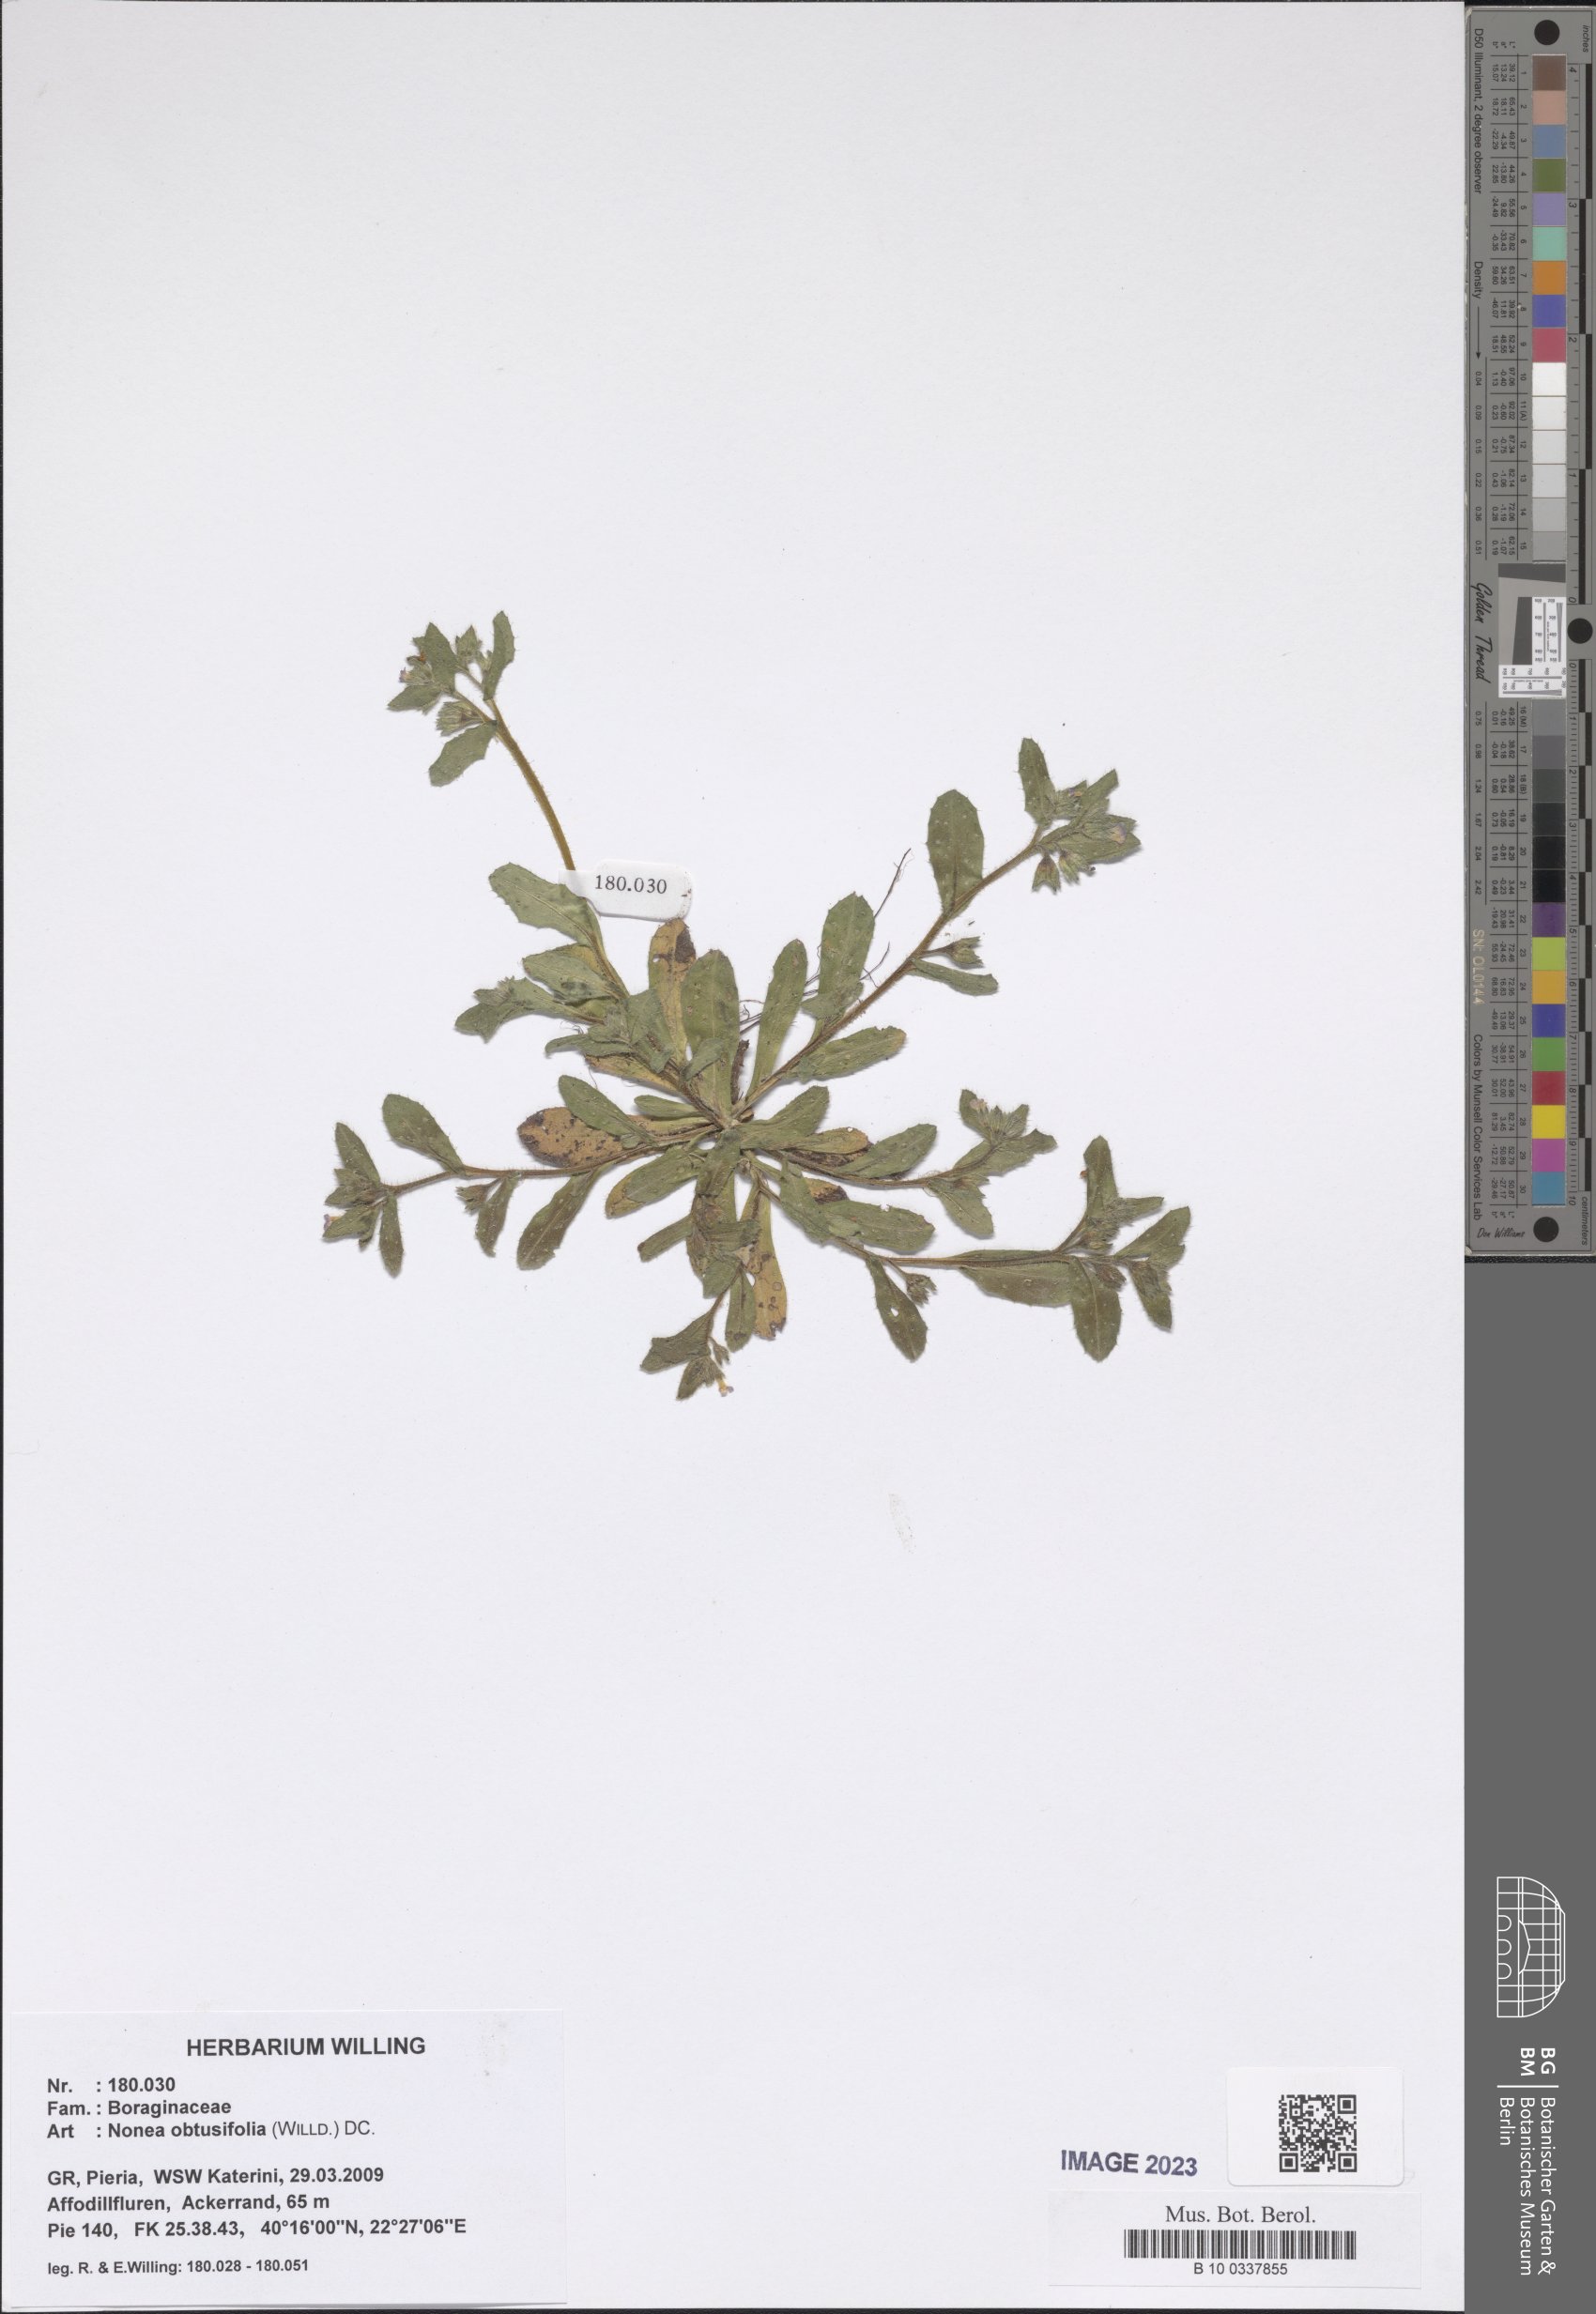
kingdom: Plantae
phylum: Tracheophyta
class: Magnoliopsida
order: Boraginales
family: Boraginaceae
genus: Melanortocarya
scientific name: Melanortocarya obtusifolia
